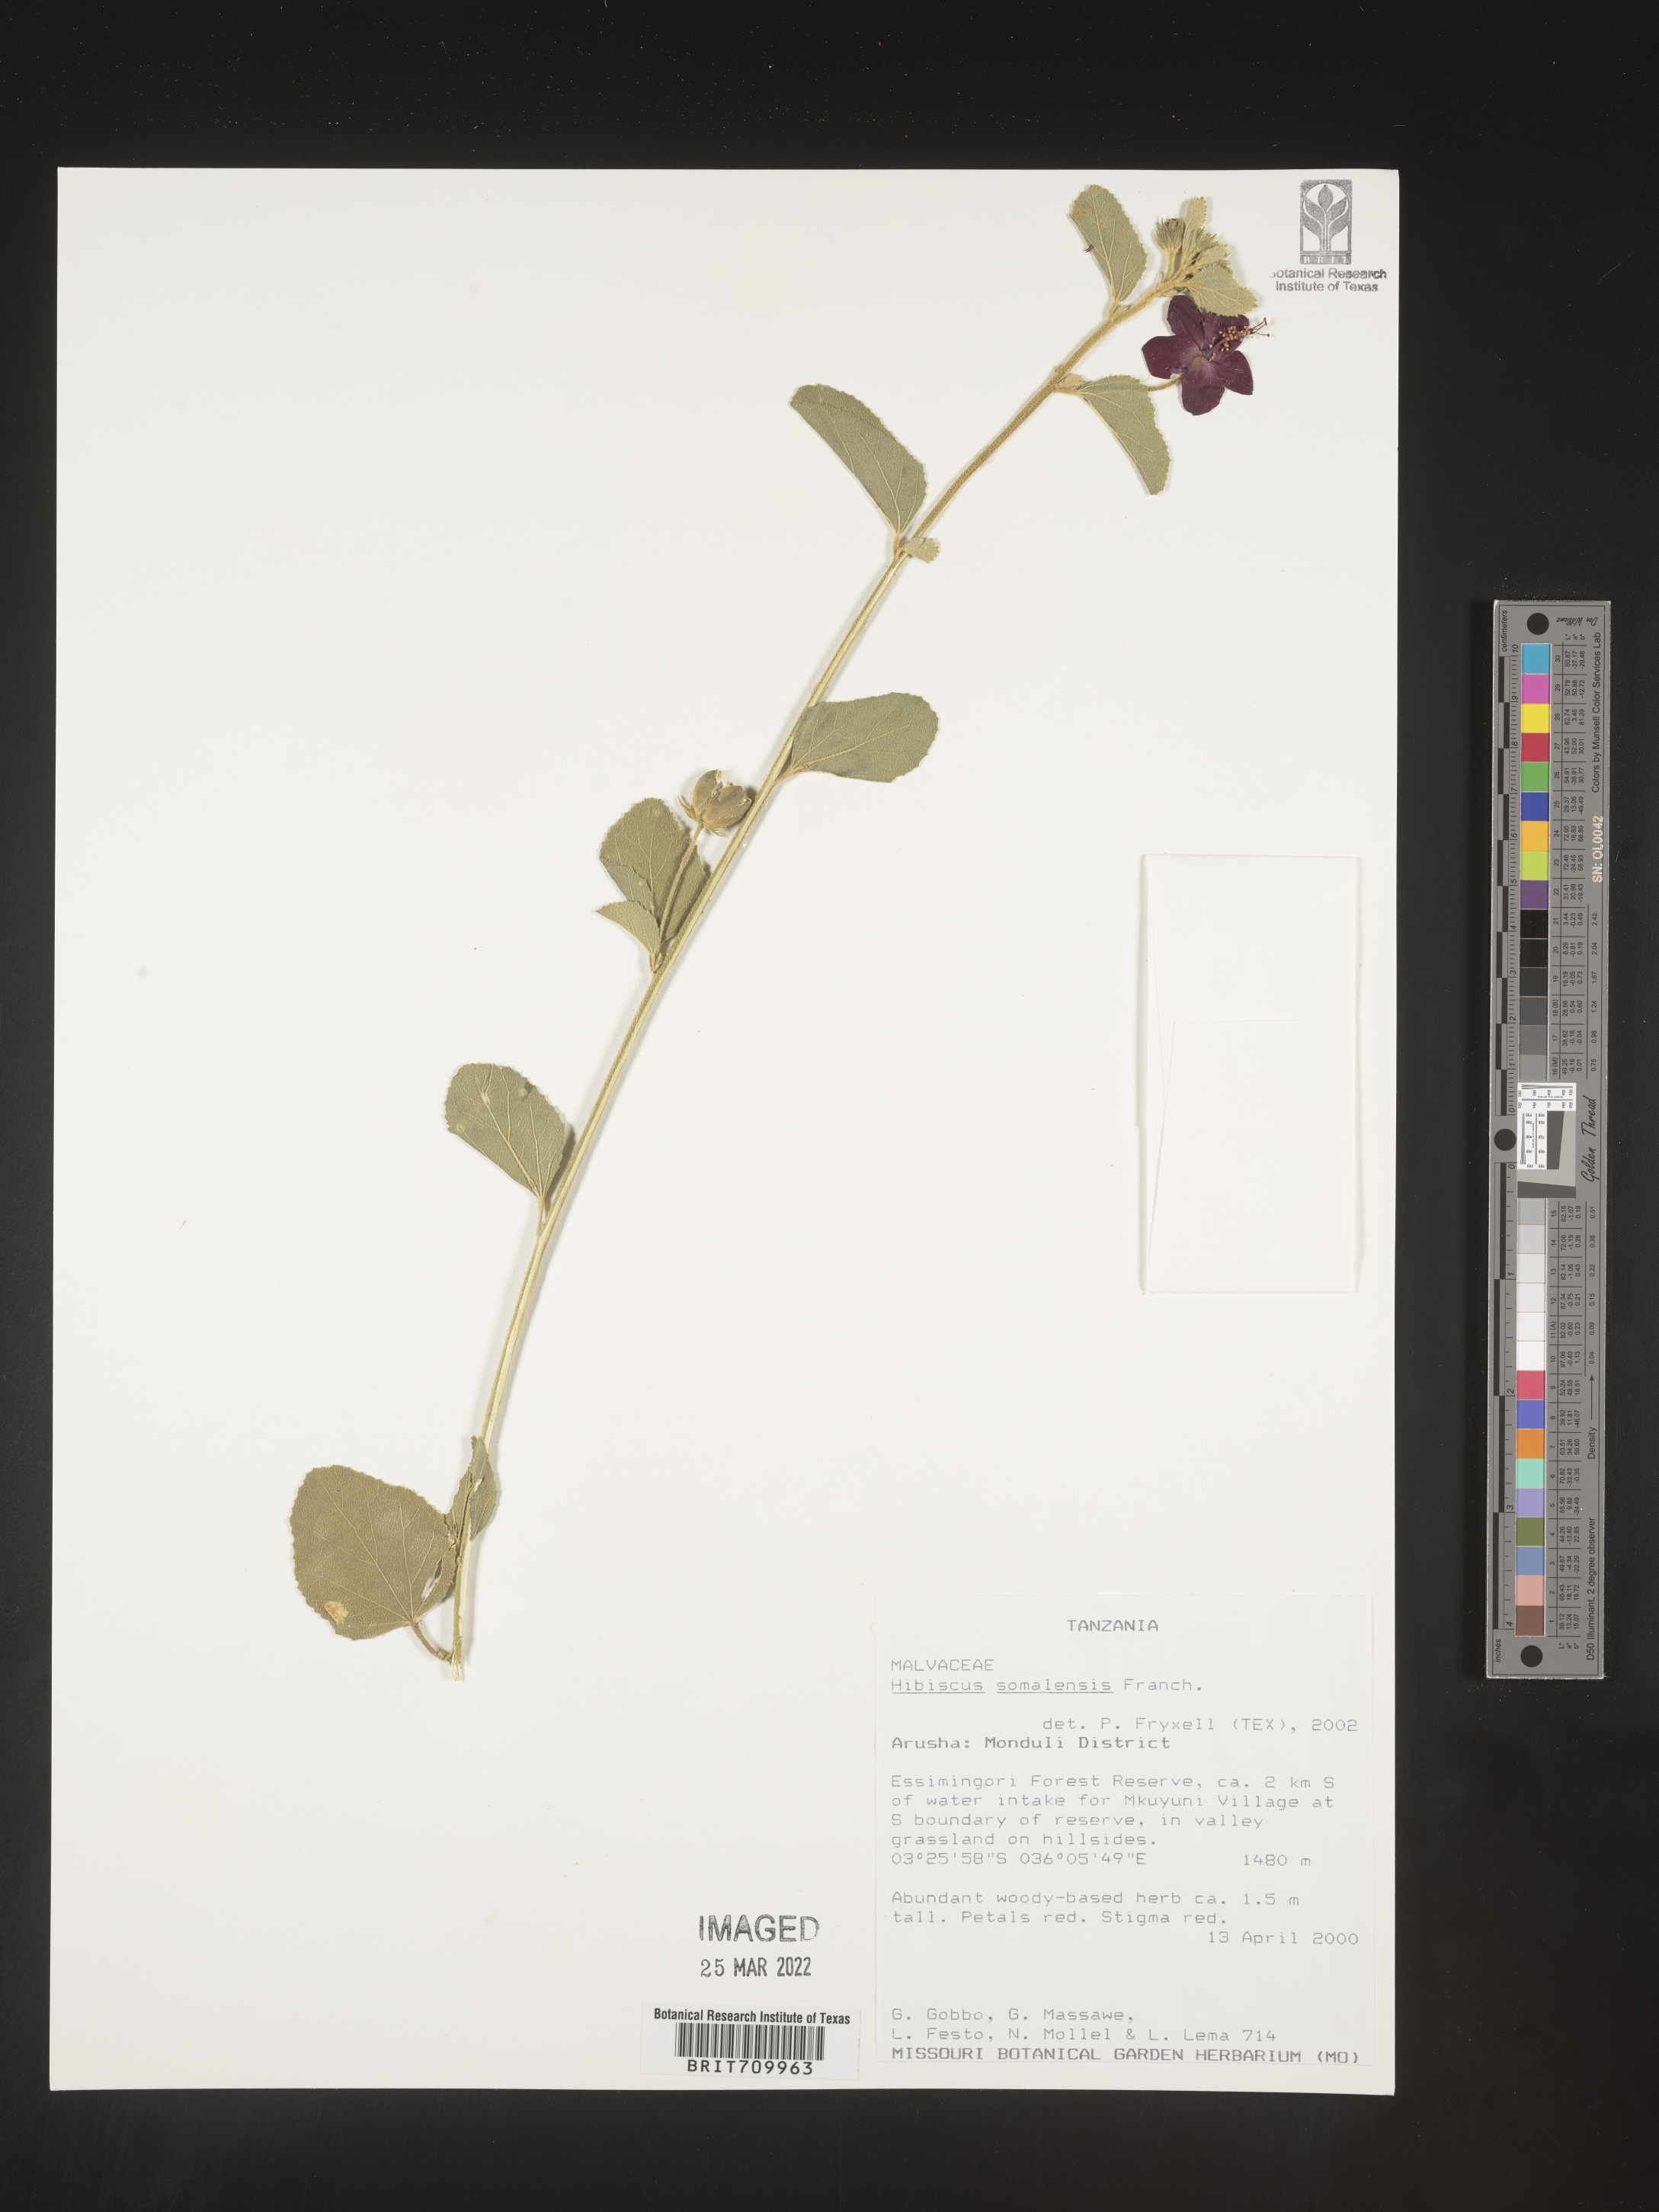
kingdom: Plantae
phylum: Tracheophyta
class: Magnoliopsida
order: Malvales
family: Malvaceae
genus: Hibiscus
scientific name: Hibiscus
